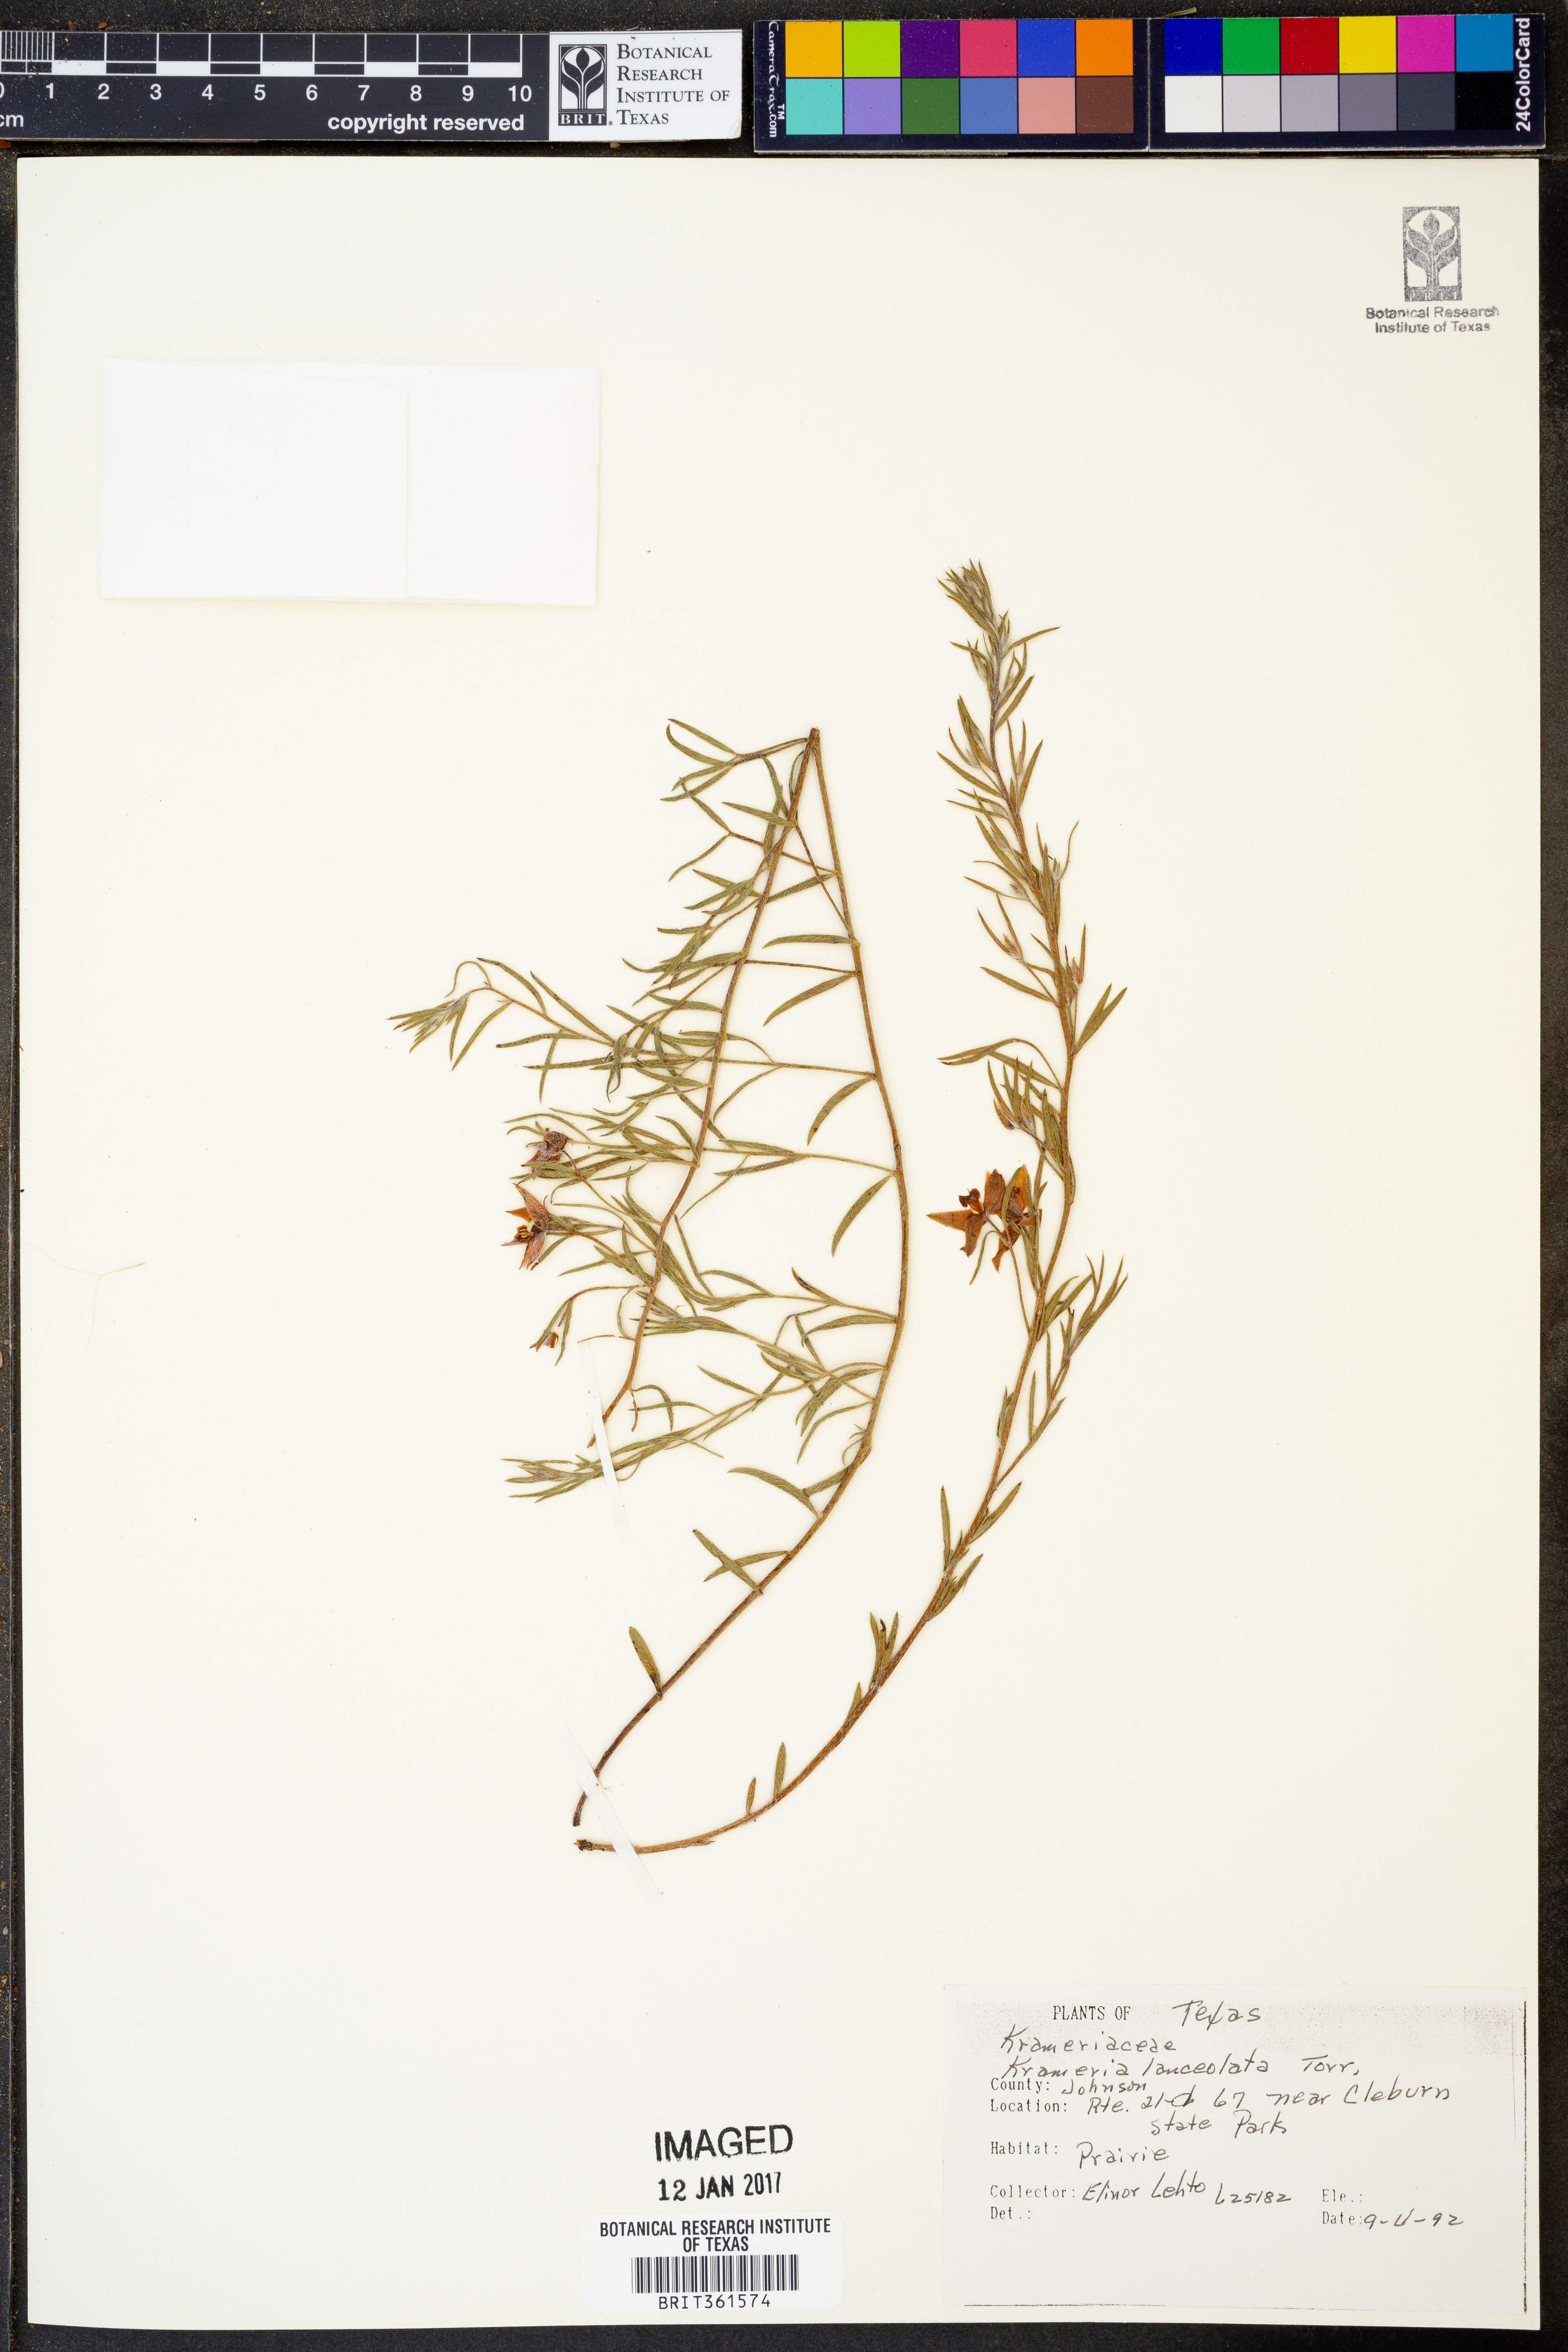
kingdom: Plantae
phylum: Tracheophyta
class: Magnoliopsida
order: Zygophyllales
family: Krameriaceae
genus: Krameria
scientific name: Krameria lanceolata
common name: Ratany
